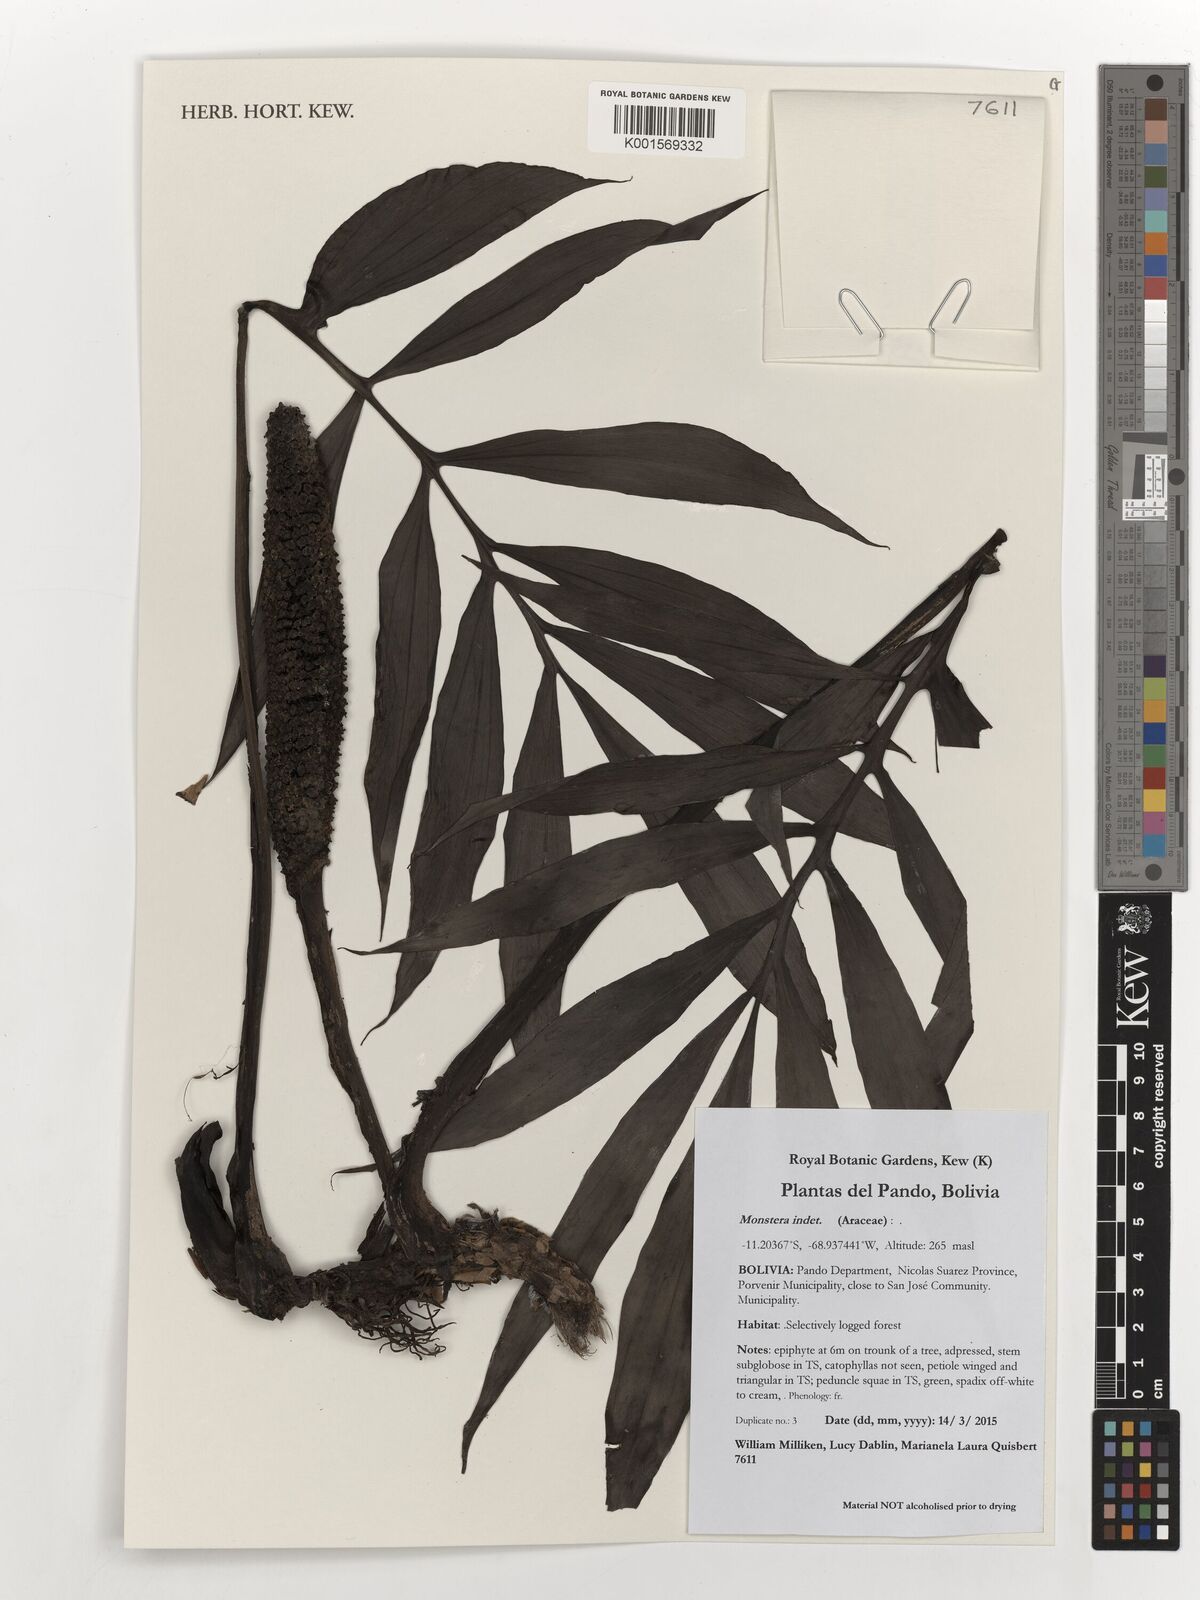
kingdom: Plantae
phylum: Tracheophyta
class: Liliopsida
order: Alismatales
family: Araceae
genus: Monstera
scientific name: Monstera
